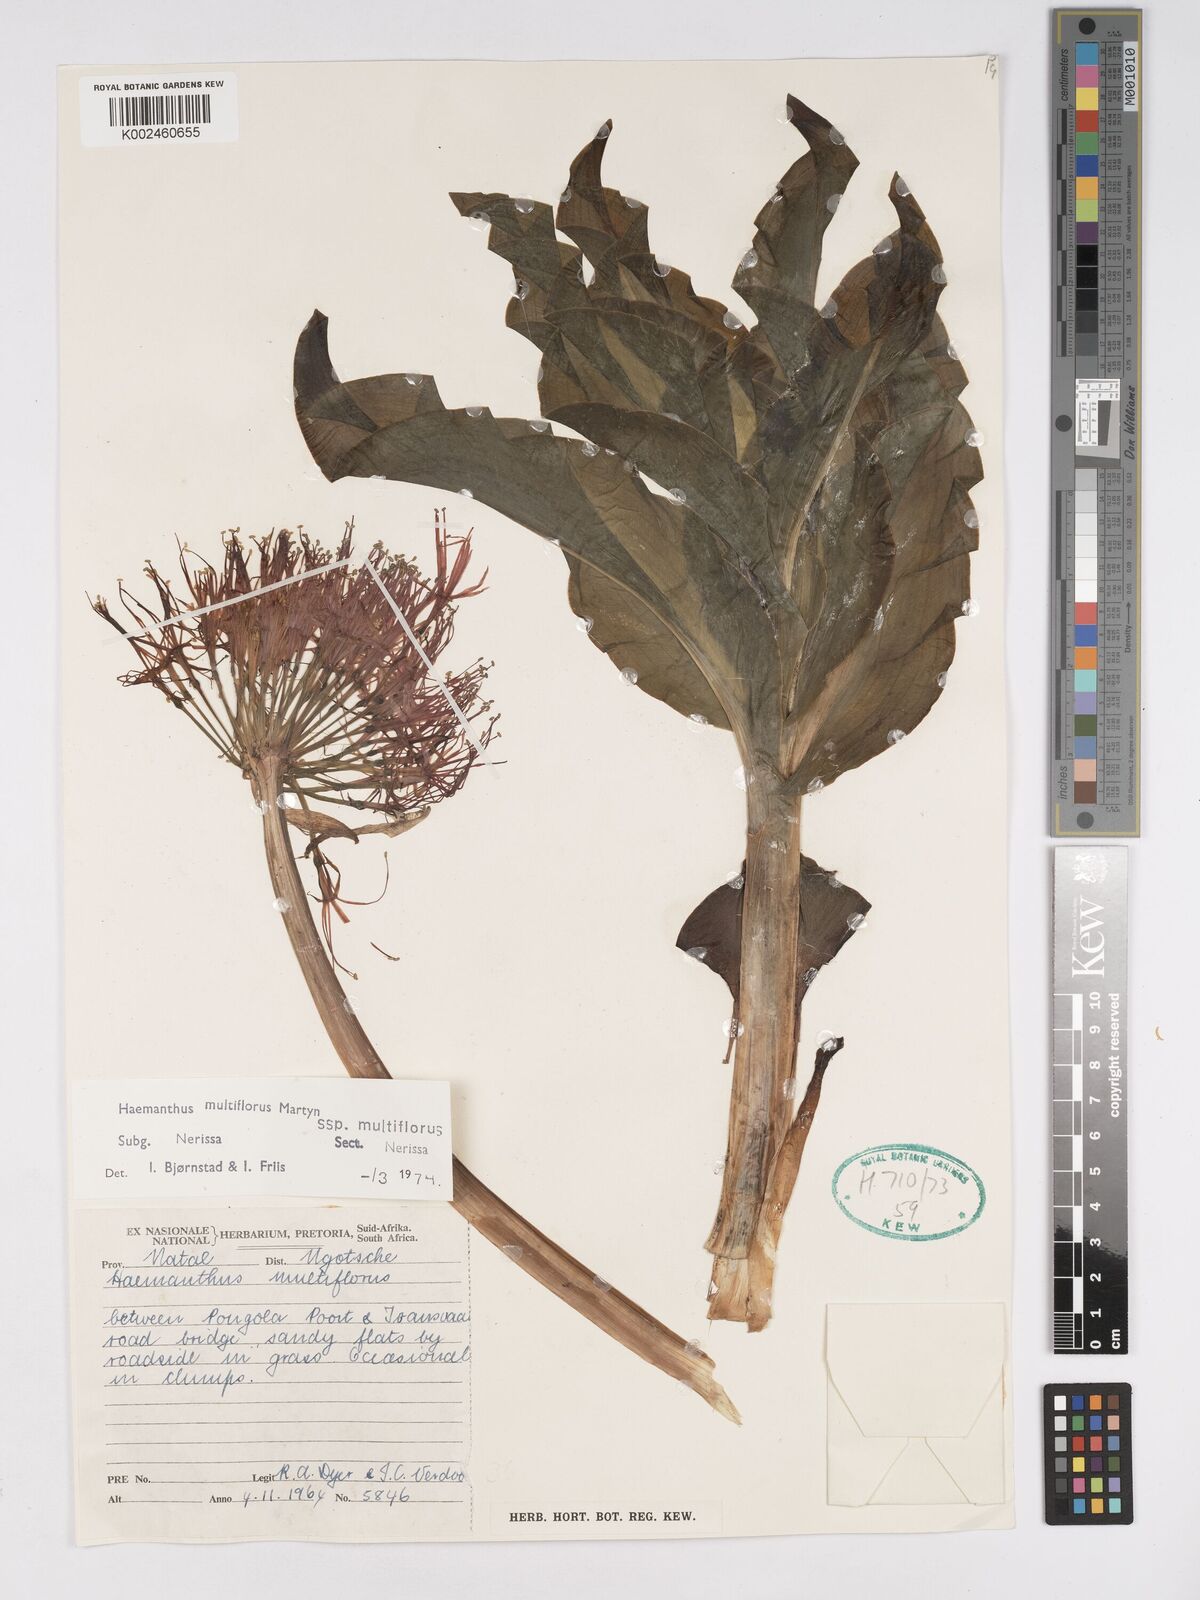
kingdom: Plantae
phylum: Tracheophyta
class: Liliopsida
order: Asparagales
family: Amaryllidaceae
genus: Scadoxus
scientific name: Scadoxus multiflorus
